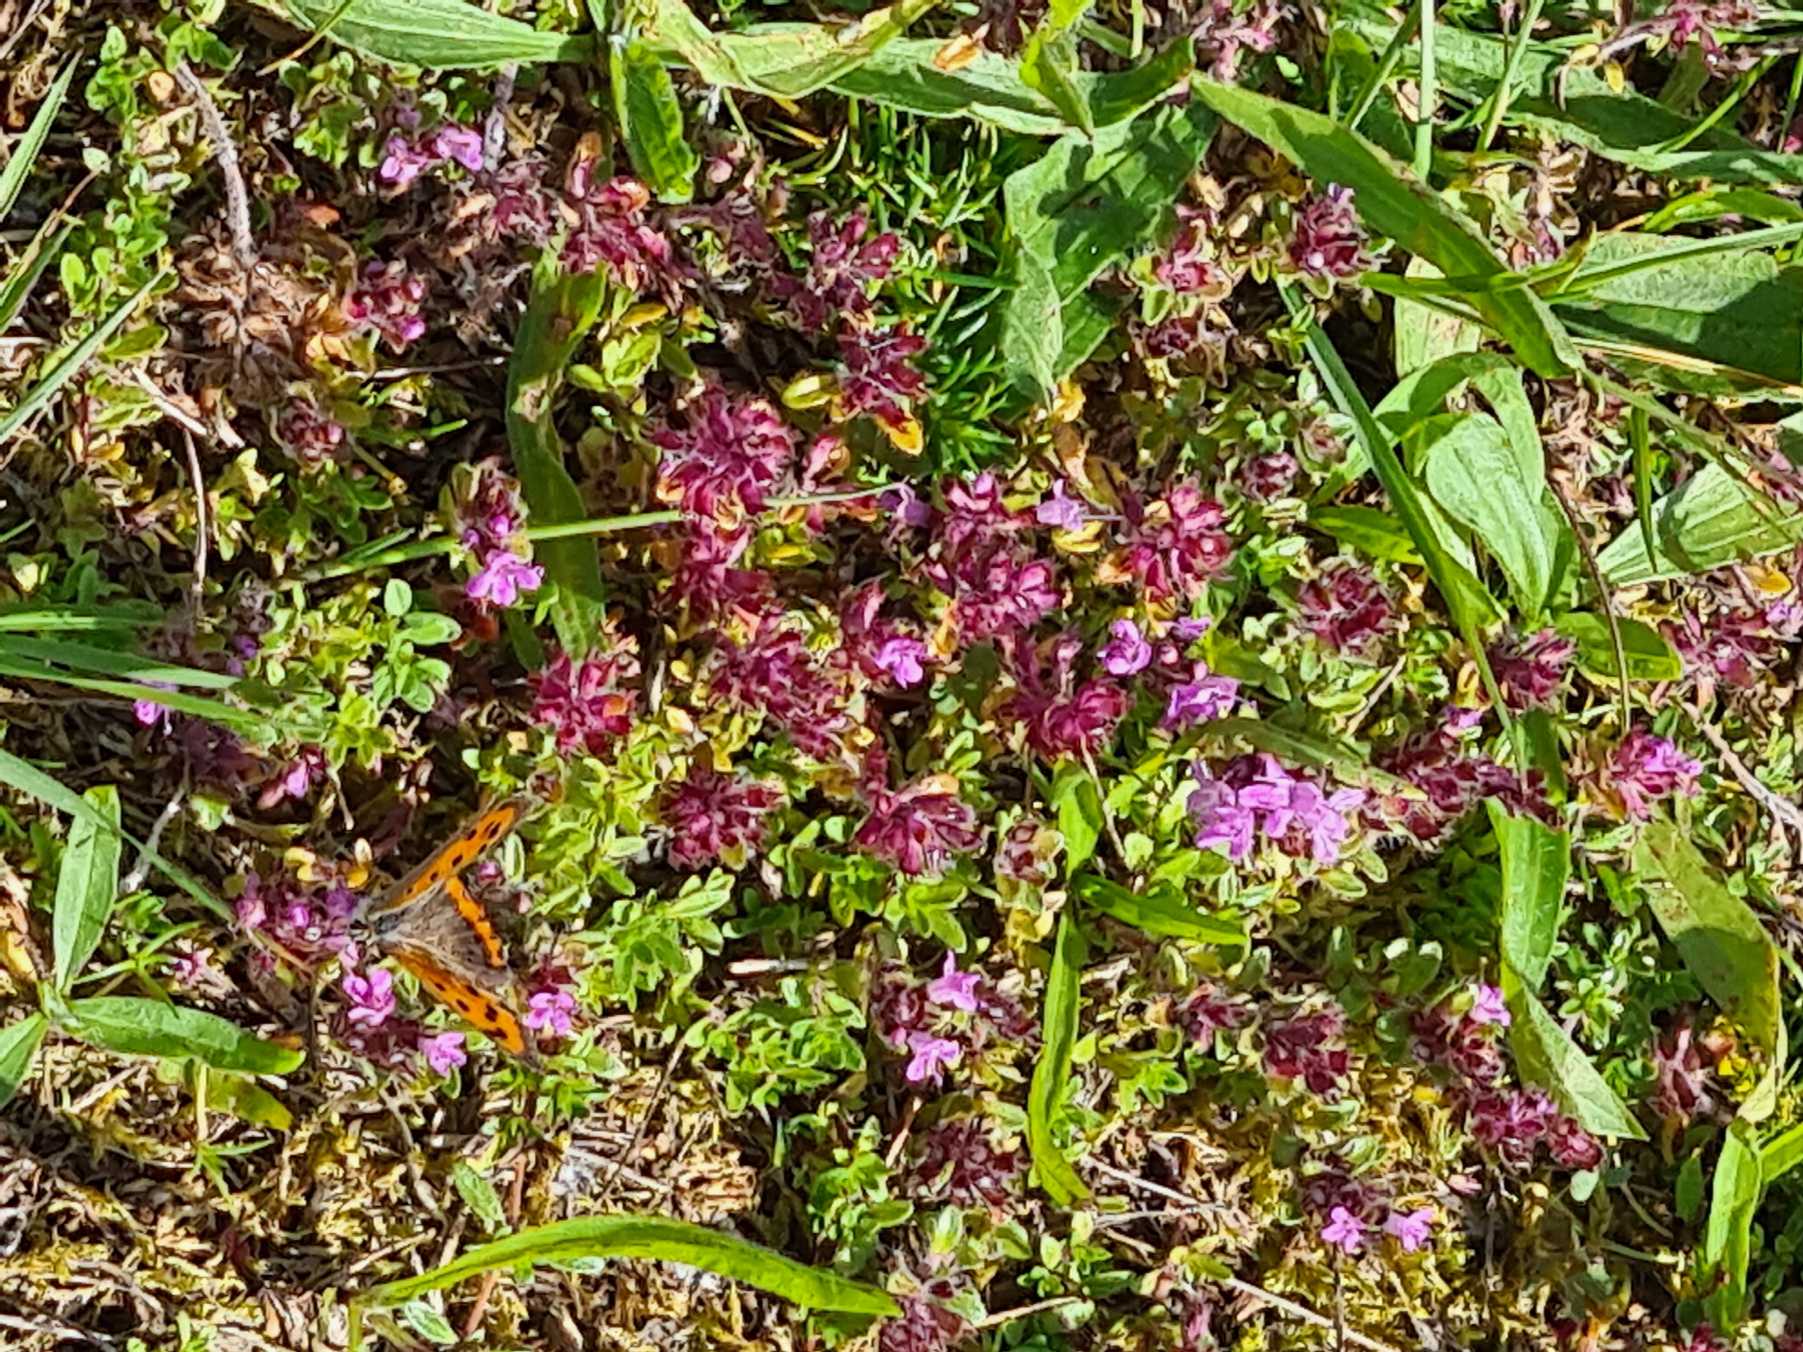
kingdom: Plantae
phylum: Tracheophyta
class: Magnoliopsida
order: Lamiales
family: Lamiaceae
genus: Thymus
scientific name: Thymus serpyllum
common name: Smalbladet timian
